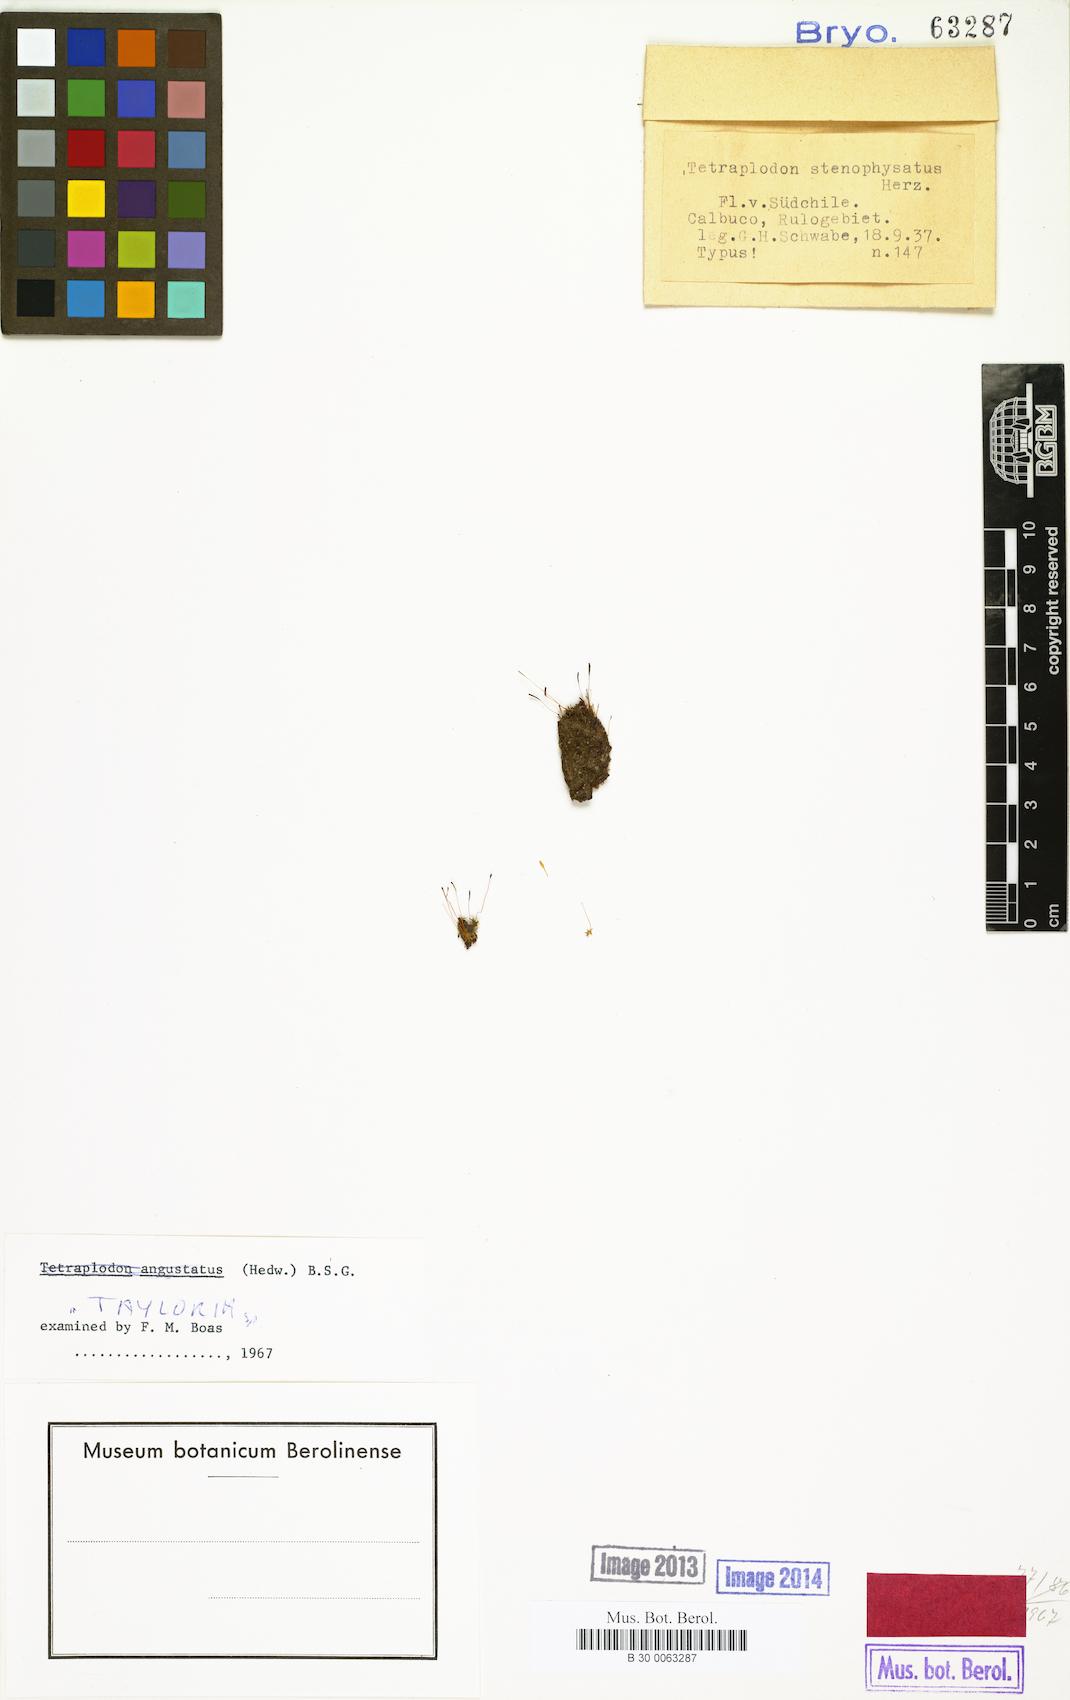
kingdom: Plantae
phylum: Bryophyta
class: Bryopsida
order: Splachnales
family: Splachnaceae
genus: Tayloria
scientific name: Tayloria
